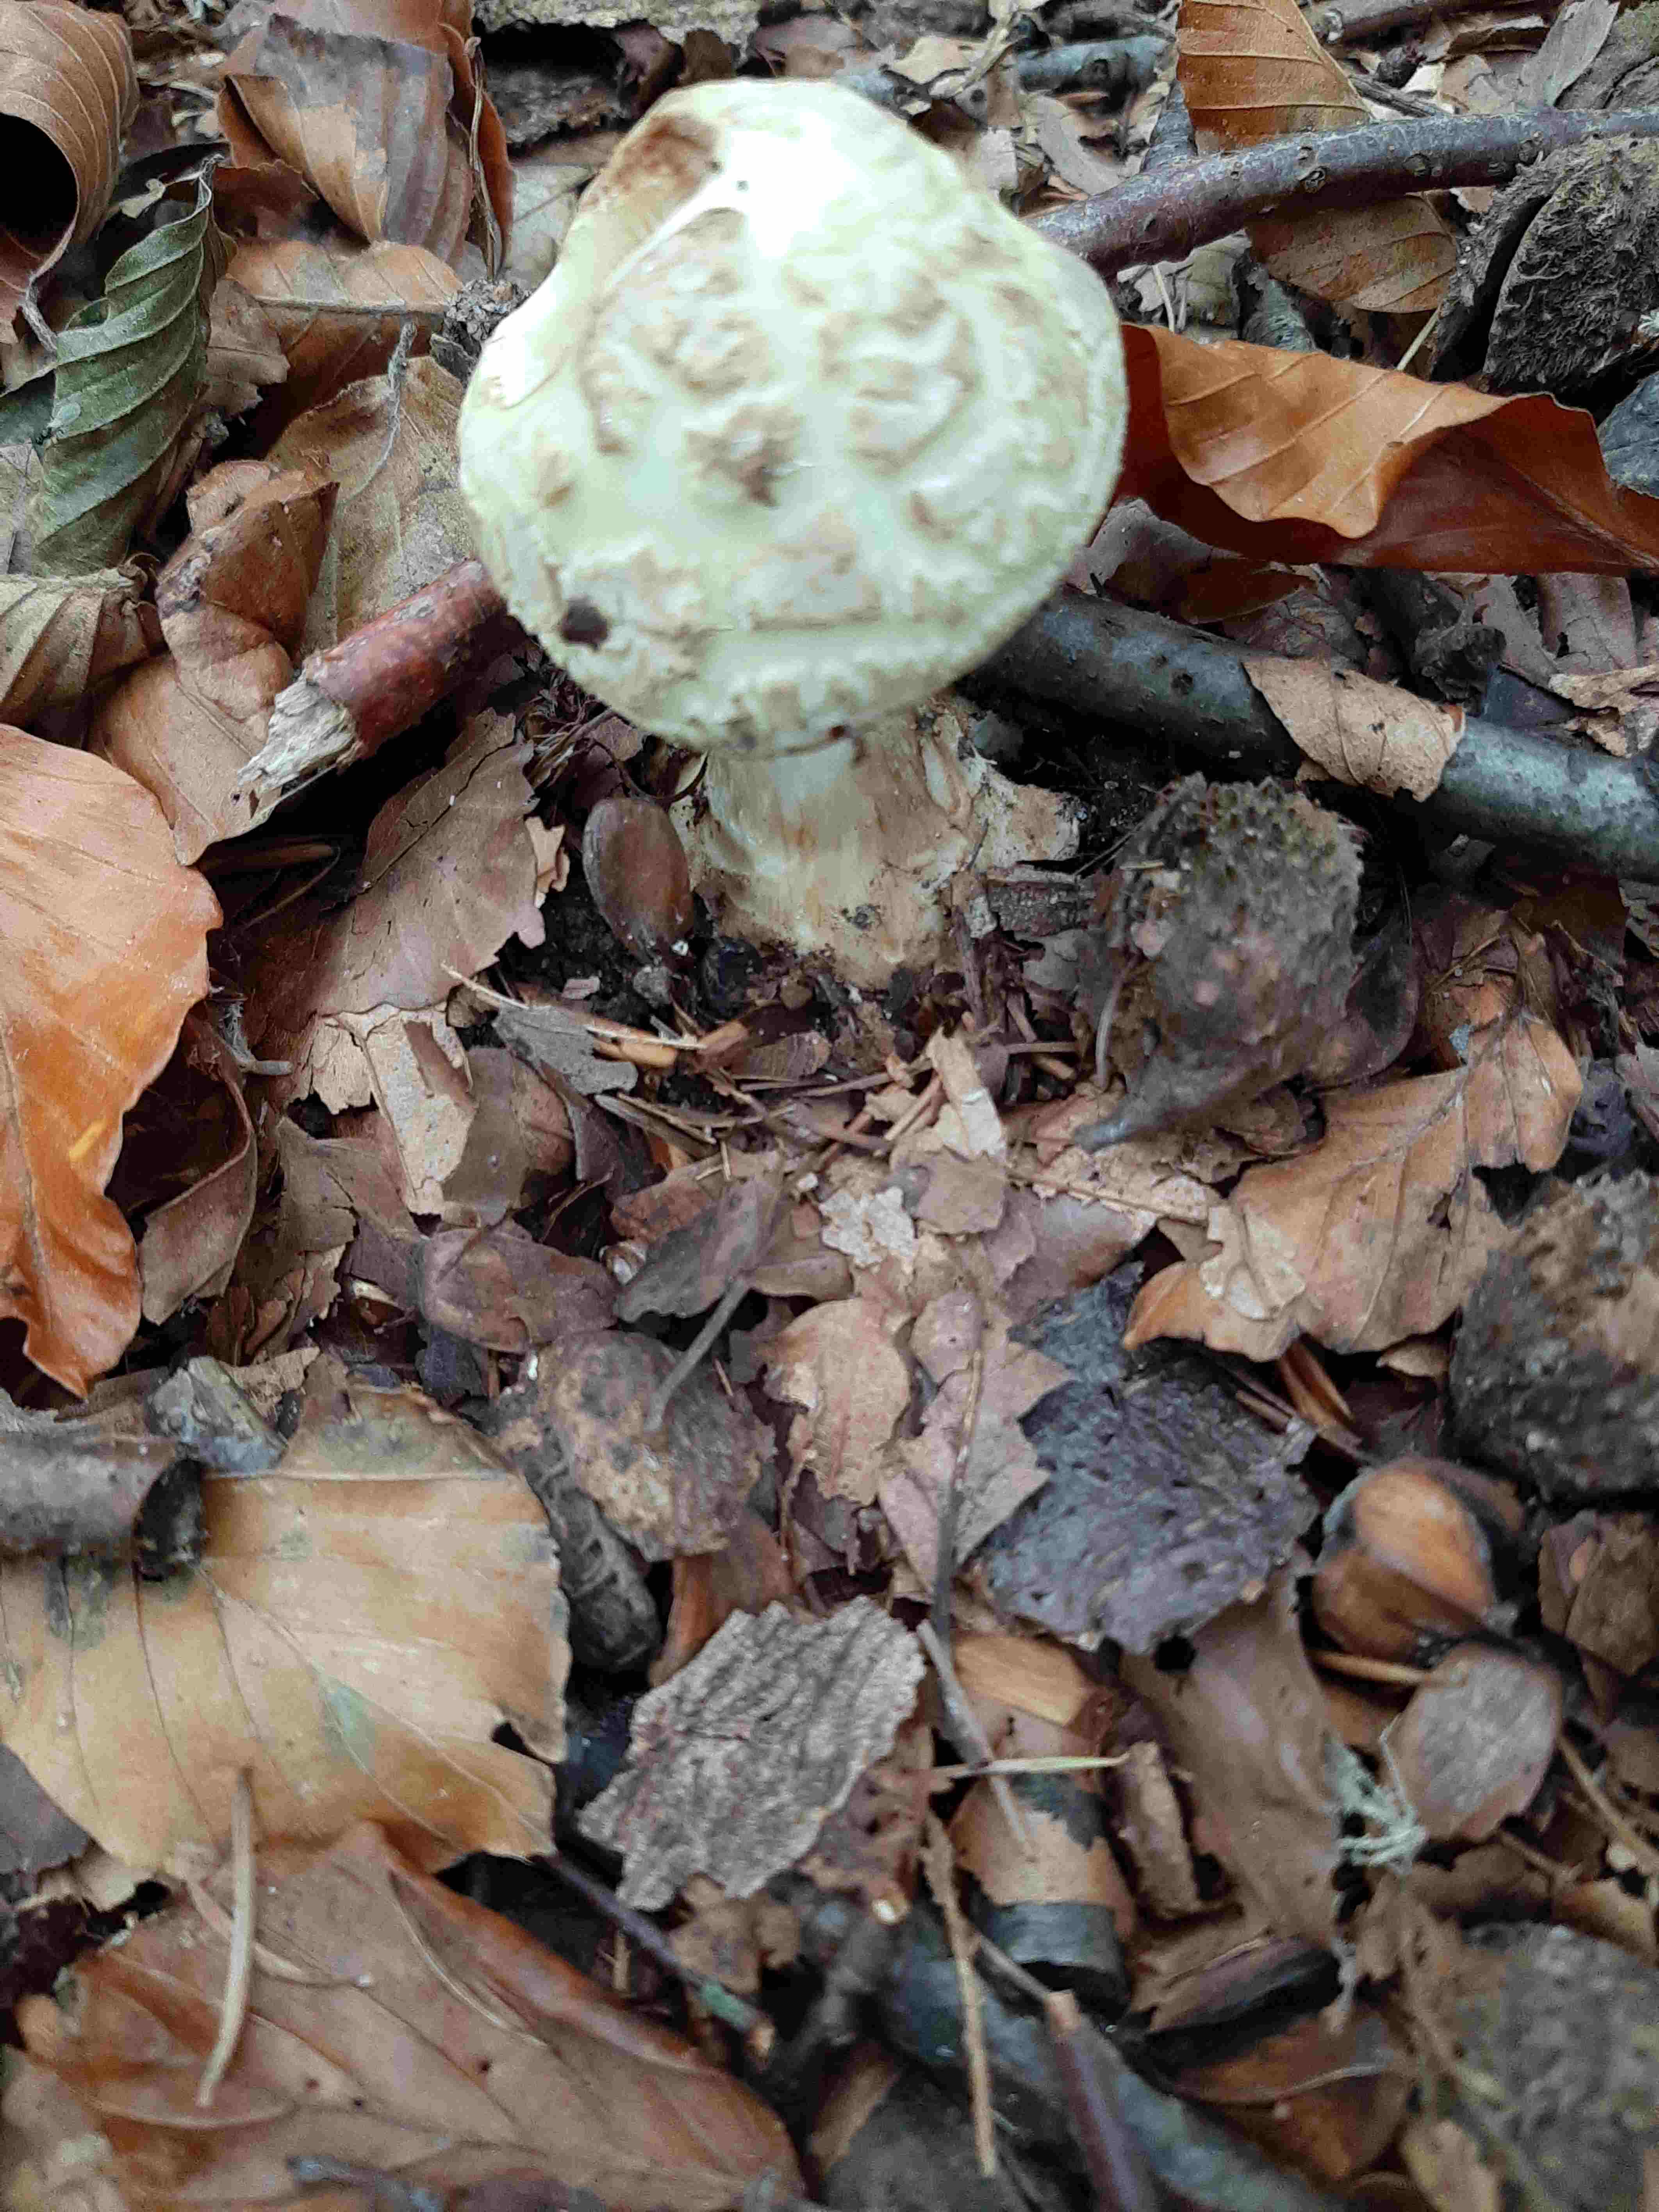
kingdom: Fungi
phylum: Basidiomycota
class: Agaricomycetes
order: Agaricales
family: Amanitaceae
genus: Amanita
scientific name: Amanita citrina
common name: kugleknoldet fluesvamp
